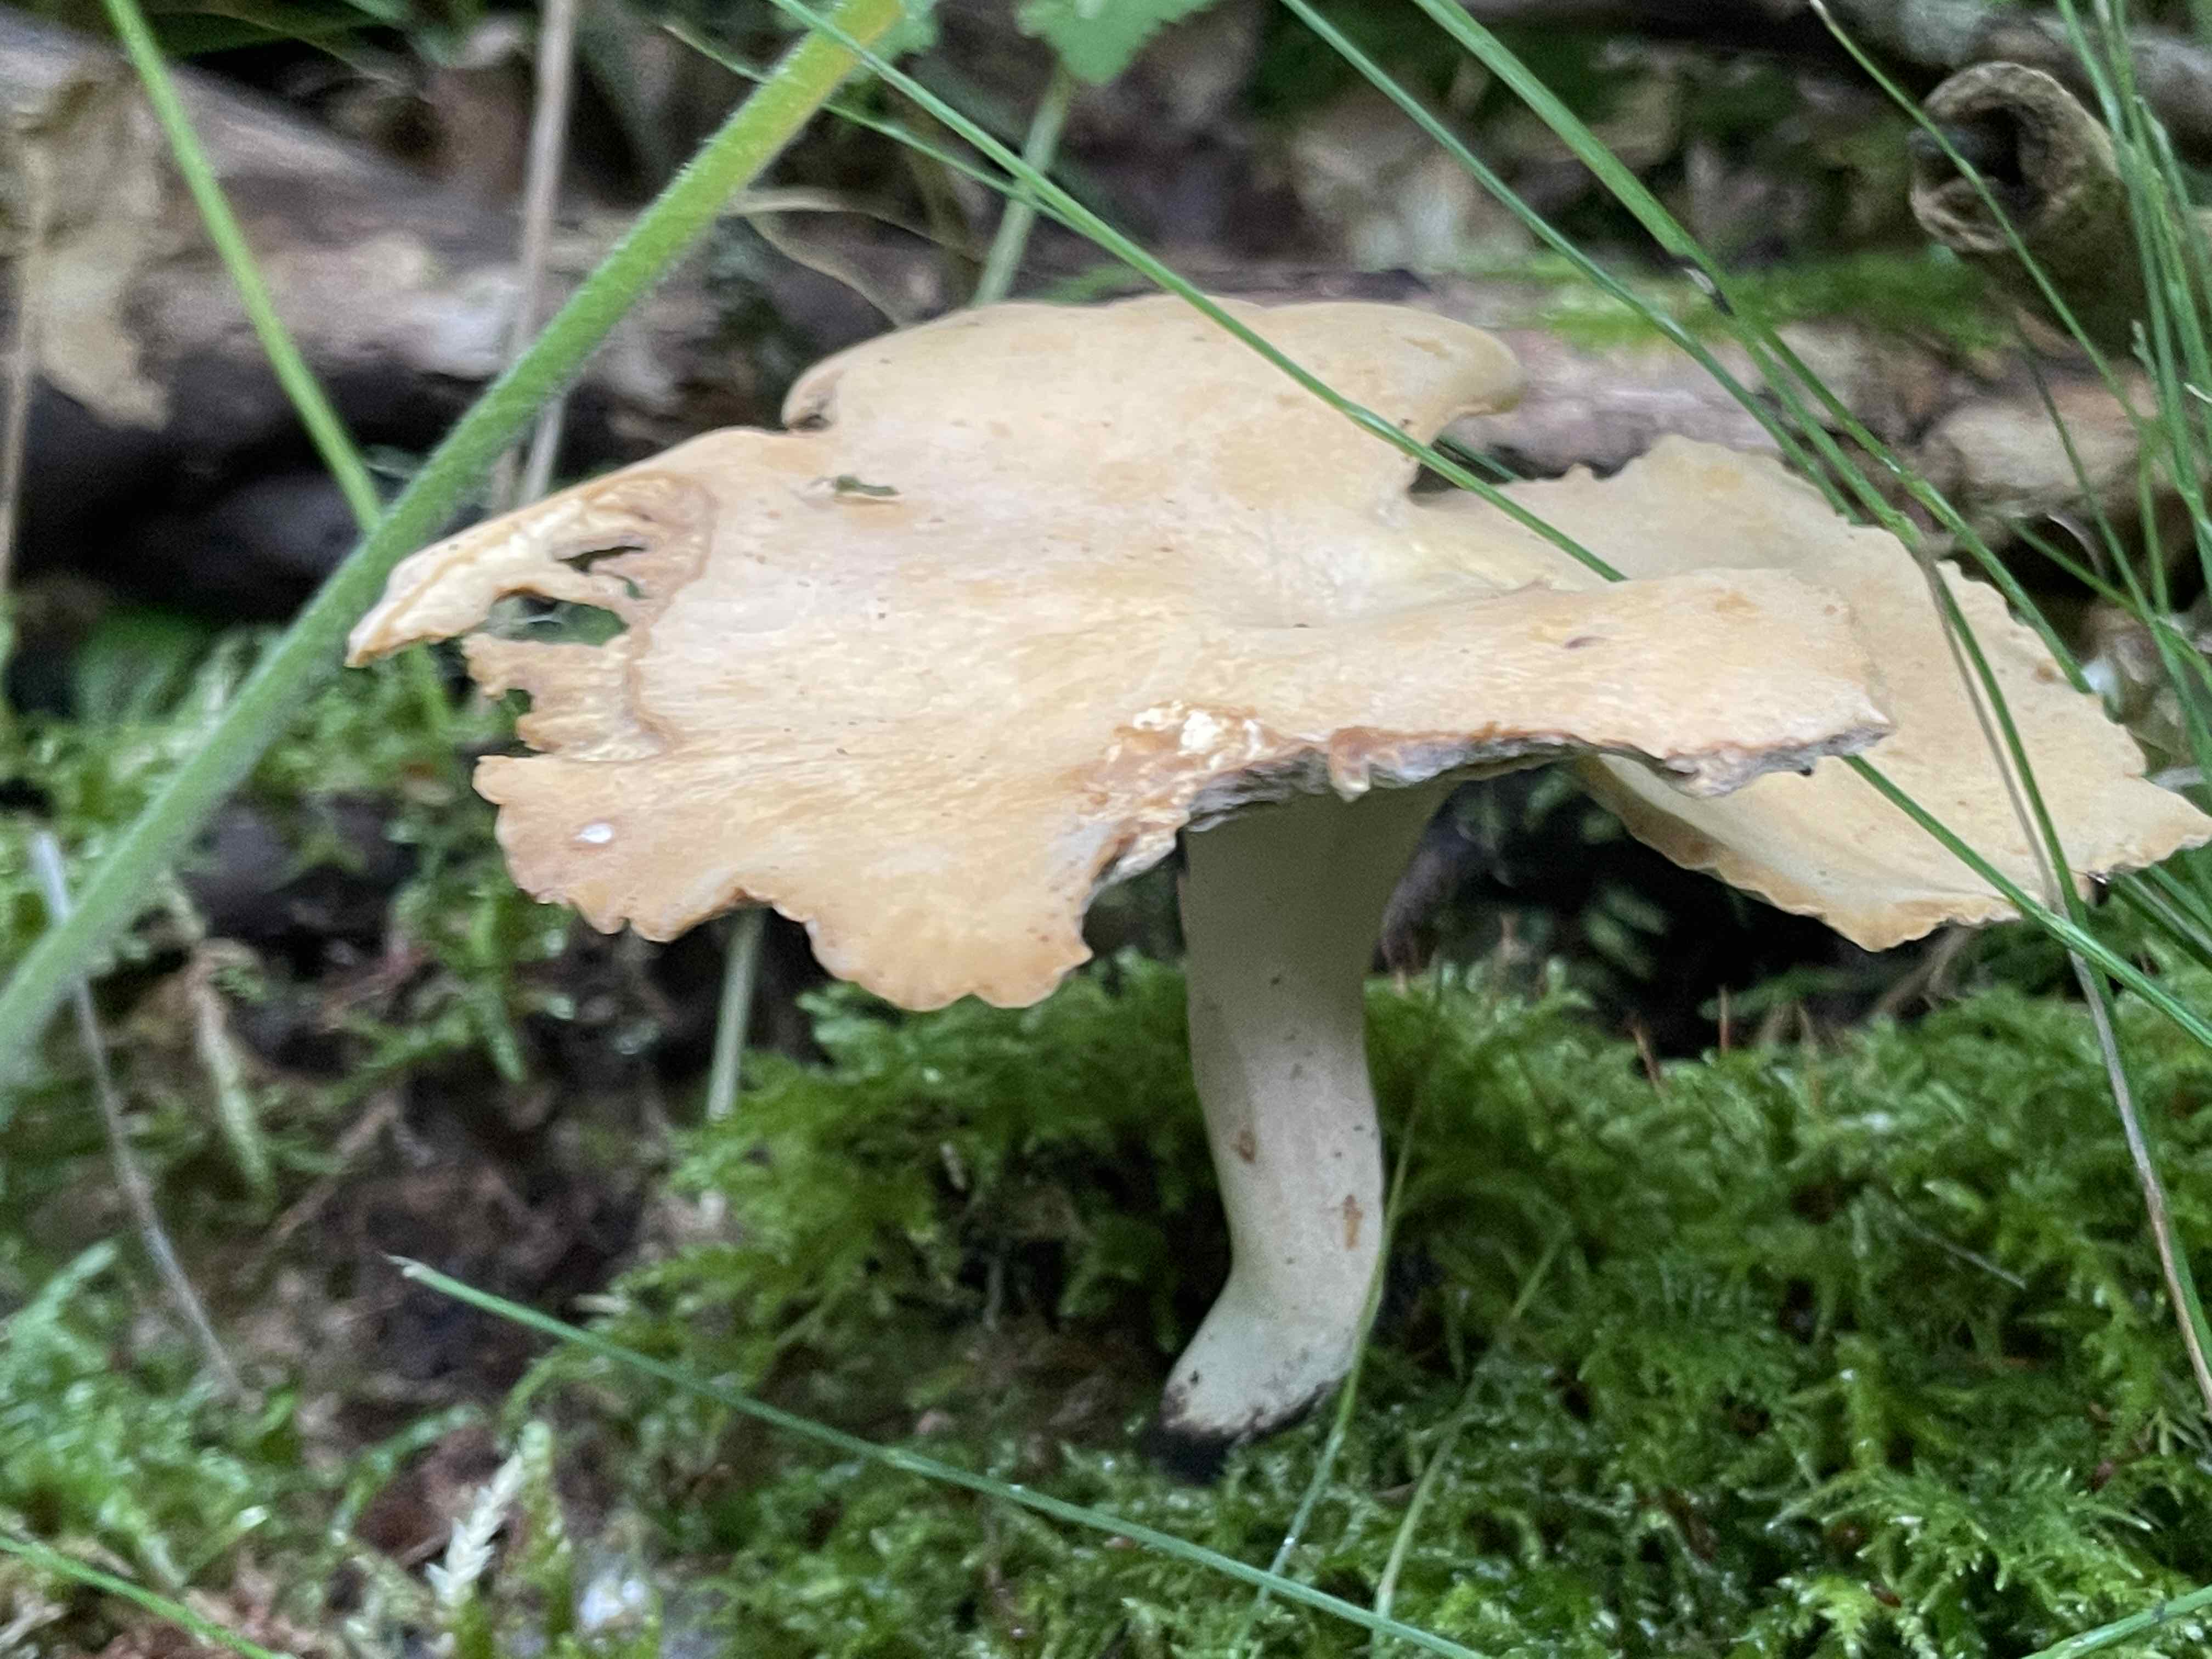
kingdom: Fungi
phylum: Basidiomycota
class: Agaricomycetes
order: Polyporales
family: Polyporaceae
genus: Cerioporus
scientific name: Cerioporus varius
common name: foranderlig stilkporesvamp
